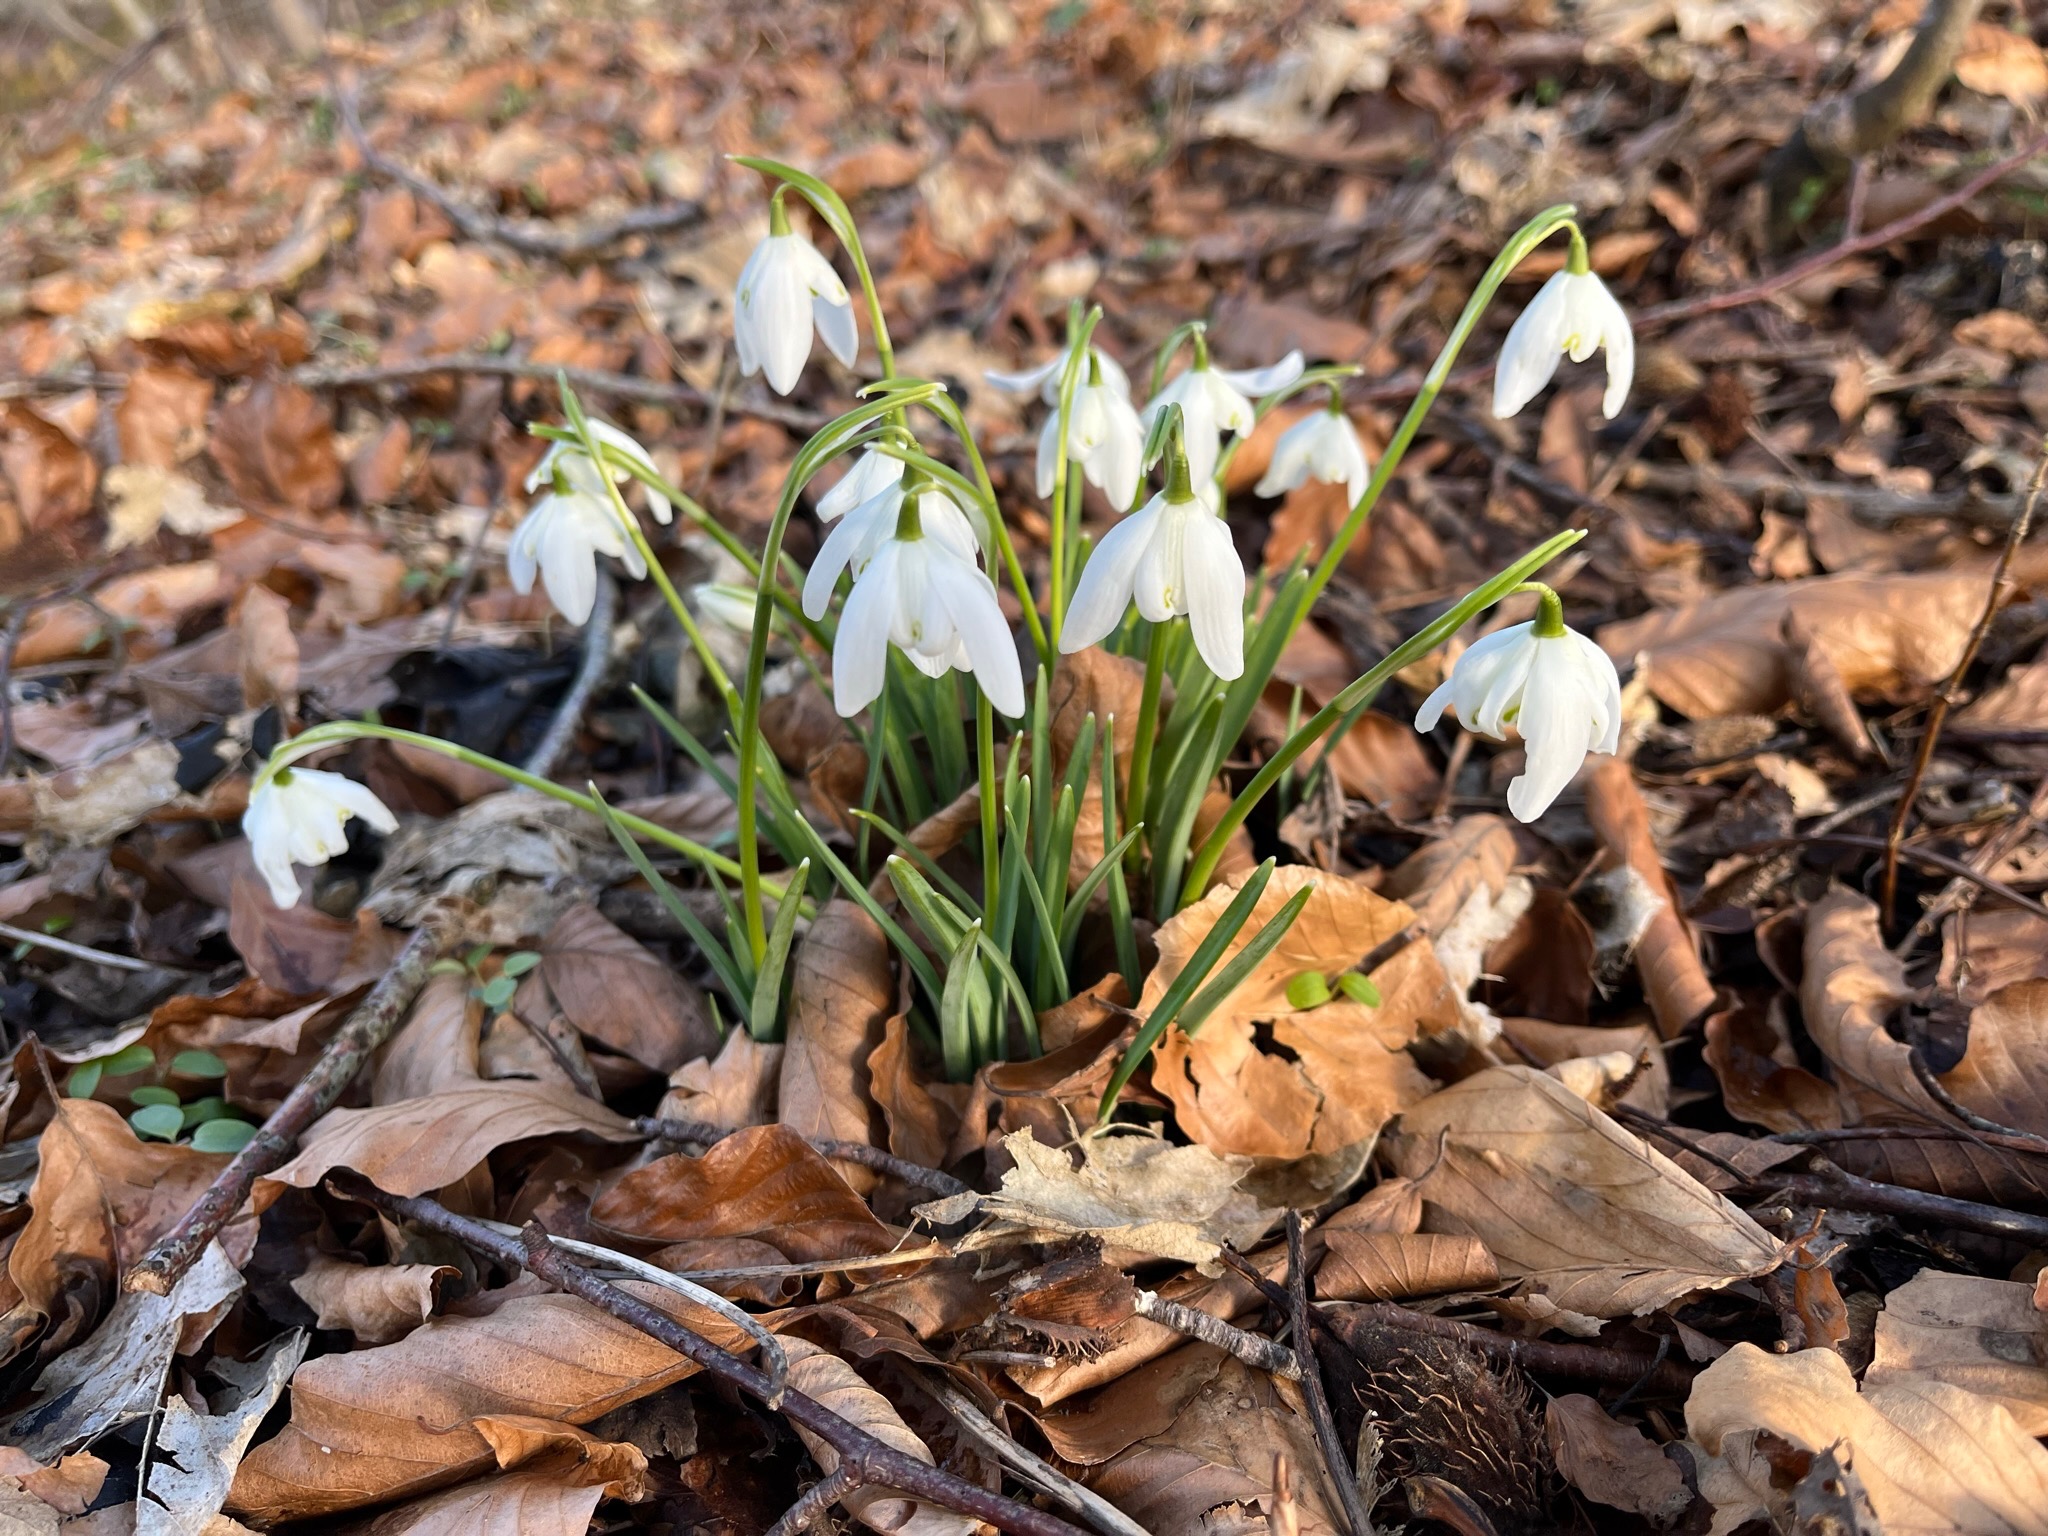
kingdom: Plantae
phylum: Tracheophyta
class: Liliopsida
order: Asparagales
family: Amaryllidaceae
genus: Galanthus
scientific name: Galanthus nivalis
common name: Vintergæk
